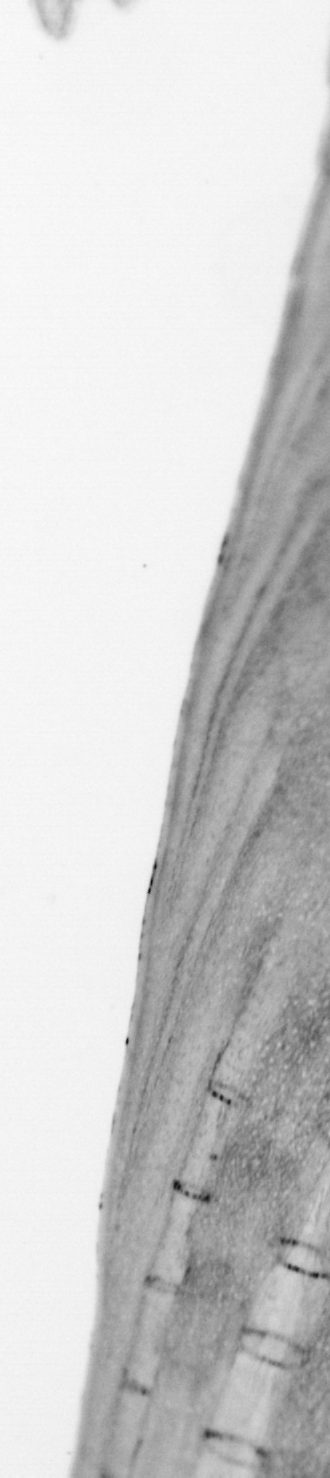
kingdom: Animalia
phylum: Chordata
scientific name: Chordata
